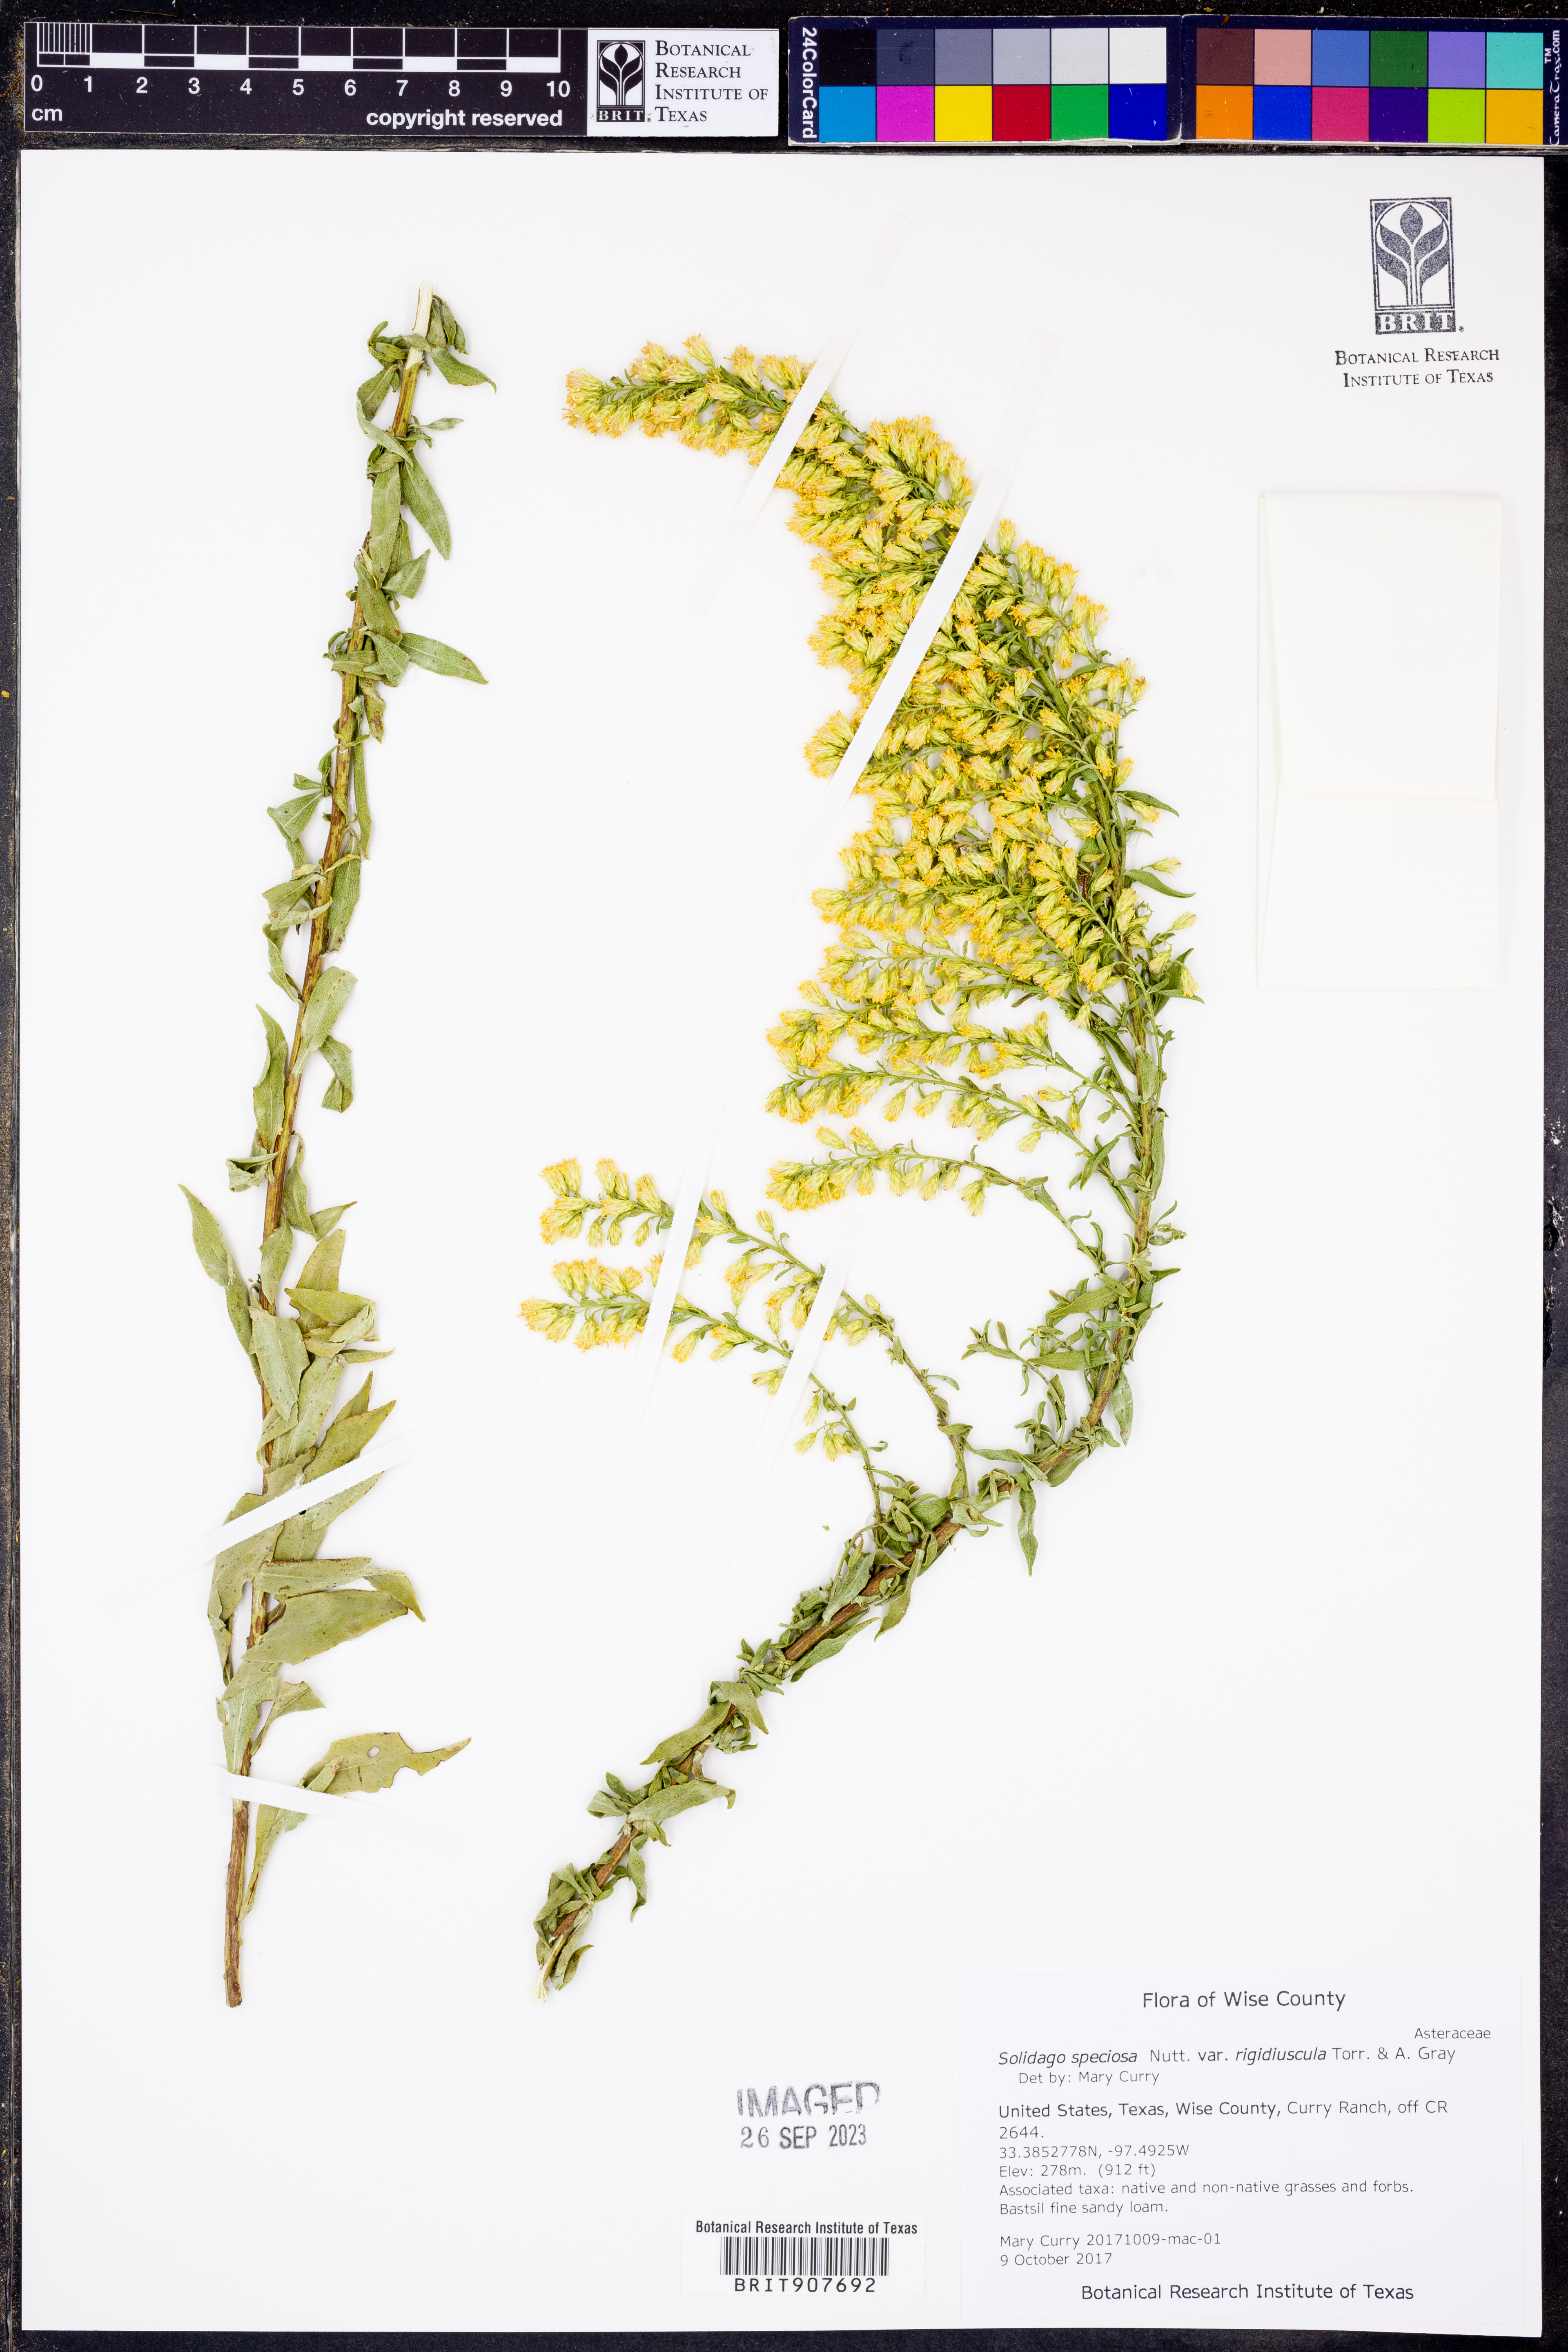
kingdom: Plantae
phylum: Tracheophyta
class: Magnoliopsida
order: Asterales
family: Asteraceae
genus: Solidago
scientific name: Solidago rigidiuscula
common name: Stiff-leaved showy goldenrod
